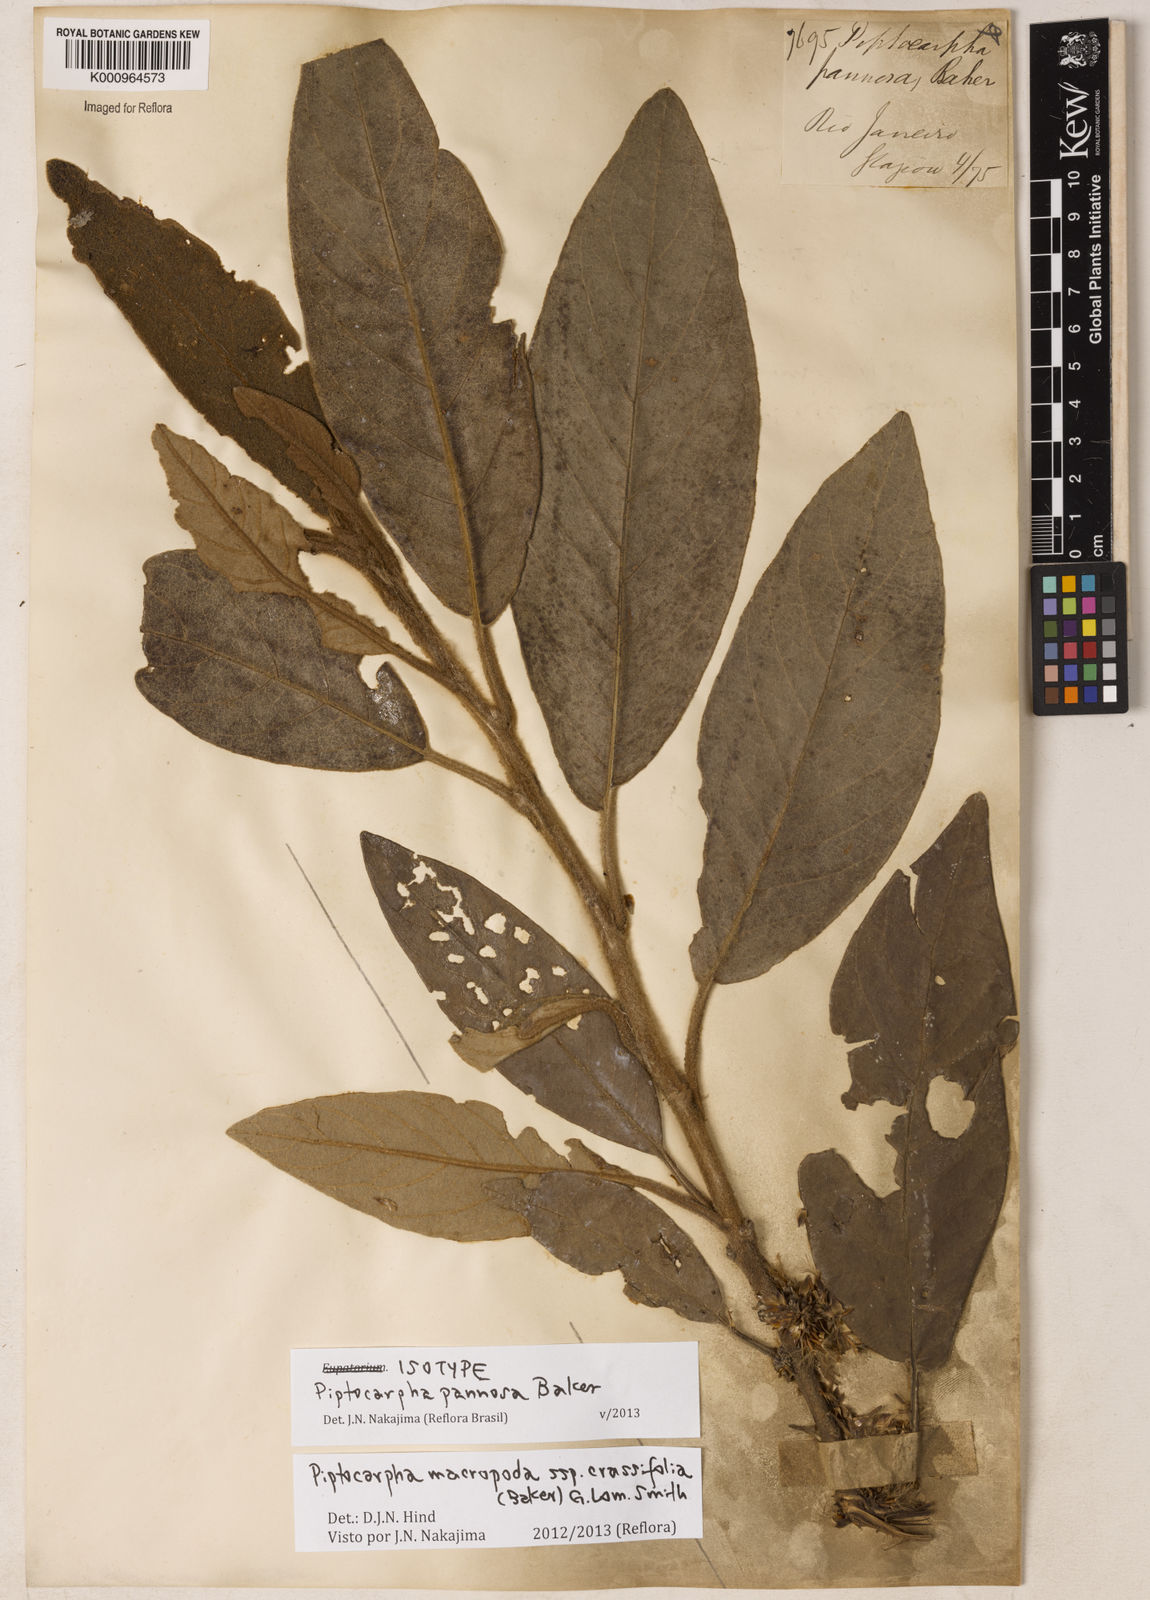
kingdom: Plantae
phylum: Tracheophyta
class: Magnoliopsida
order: Asterales
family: Asteraceae
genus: Piptocarpha
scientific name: Piptocarpha macropoda
